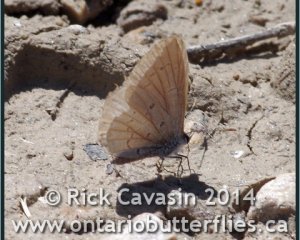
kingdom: Animalia
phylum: Arthropoda
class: Insecta
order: Lepidoptera
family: Lycaenidae
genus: Celastrina
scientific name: Celastrina lucia
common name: Northern Spring Azure
